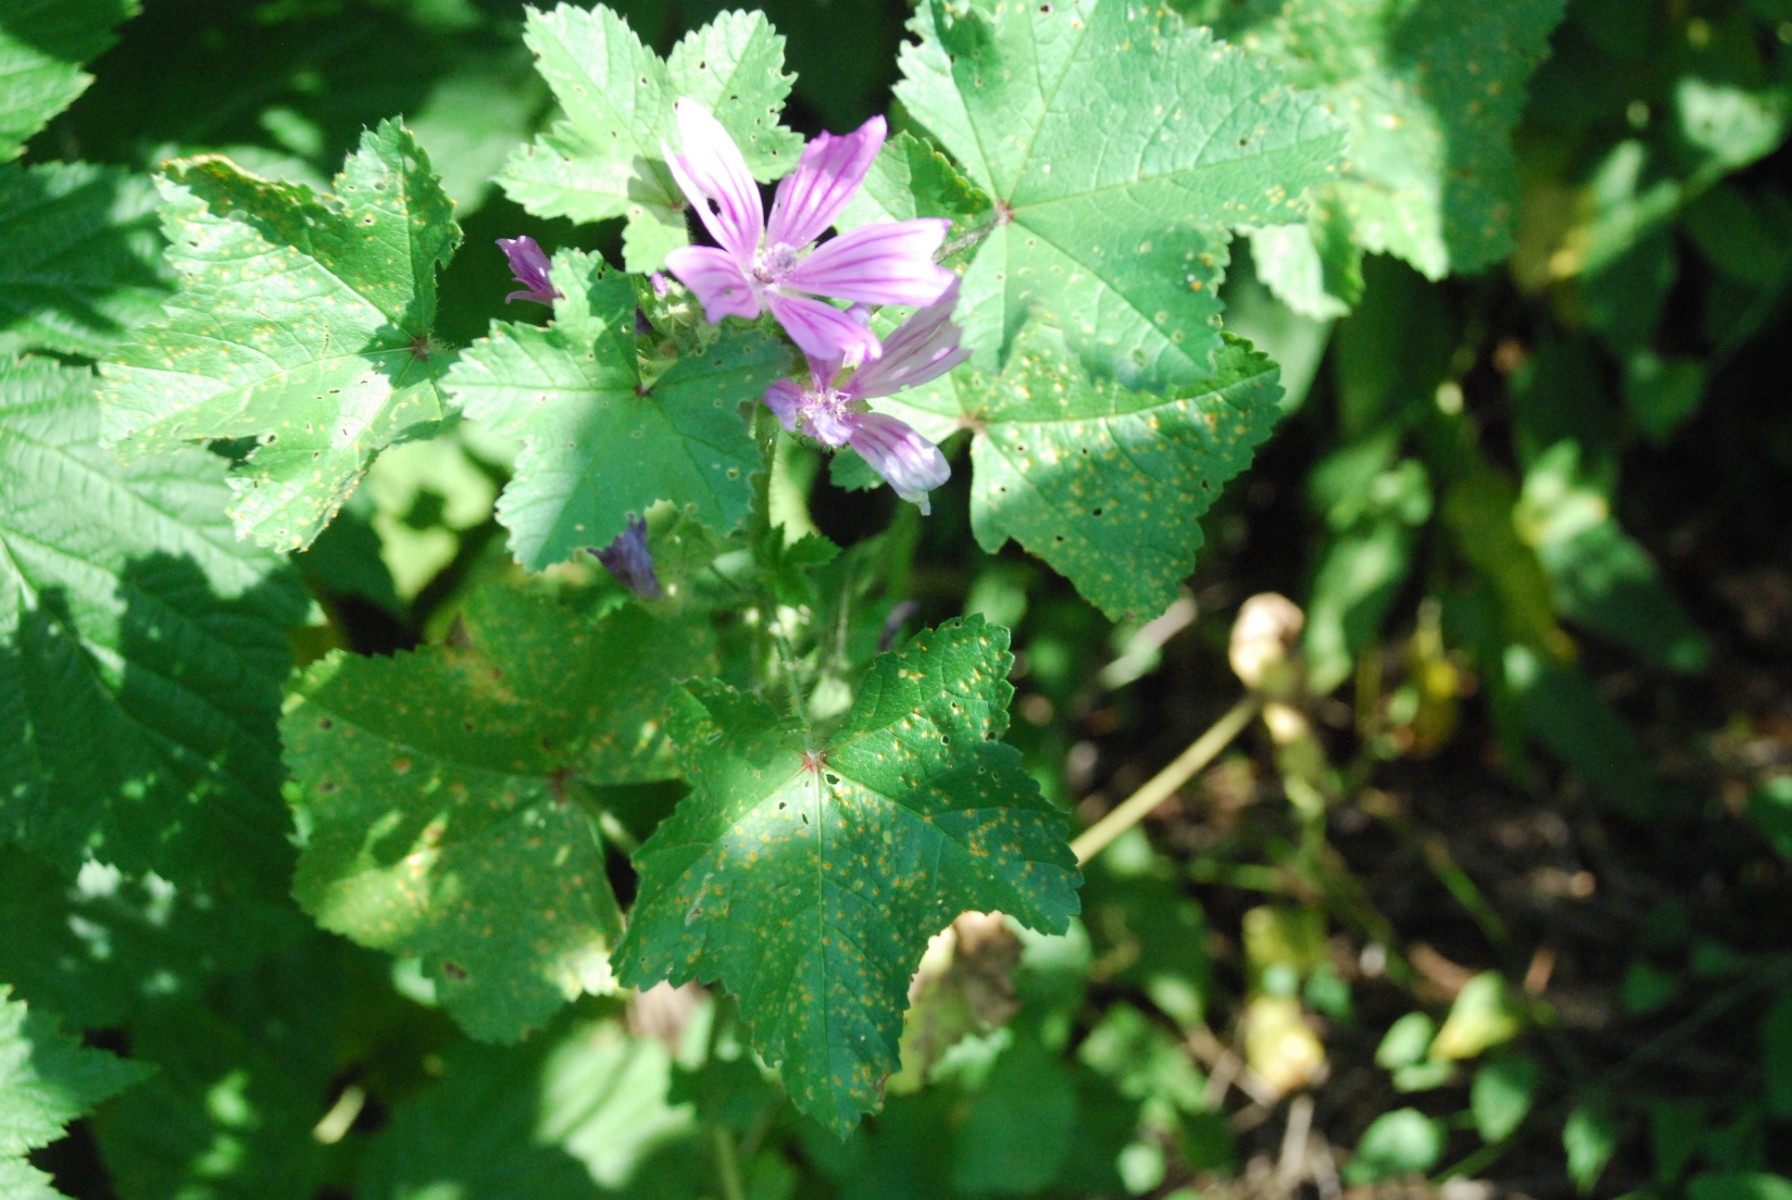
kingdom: Fungi
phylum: Basidiomycota
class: Pucciniomycetes
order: Pucciniales
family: Pucciniaceae
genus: Puccinia
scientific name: Puccinia malvacearum
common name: stokrose-tvecellerust
